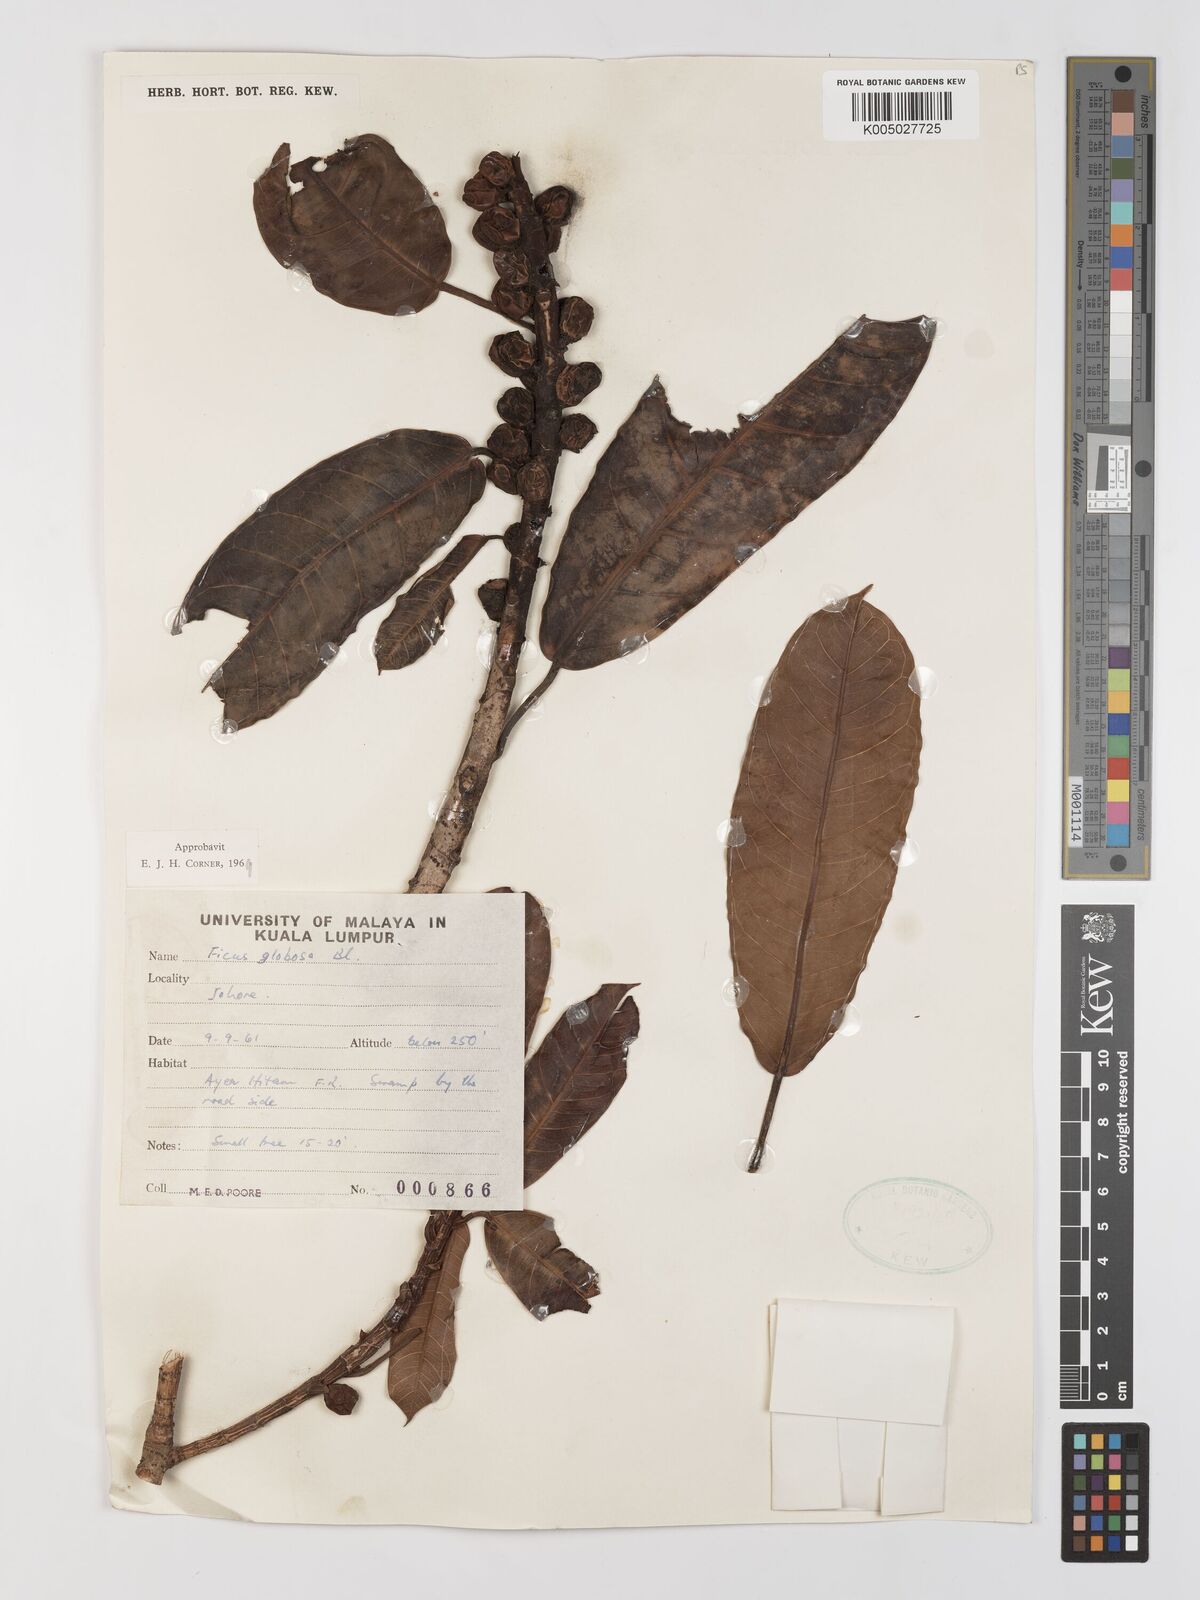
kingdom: Plantae
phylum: Tracheophyta
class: Magnoliopsida
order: Rosales
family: Moraceae
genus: Ficus
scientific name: Ficus
